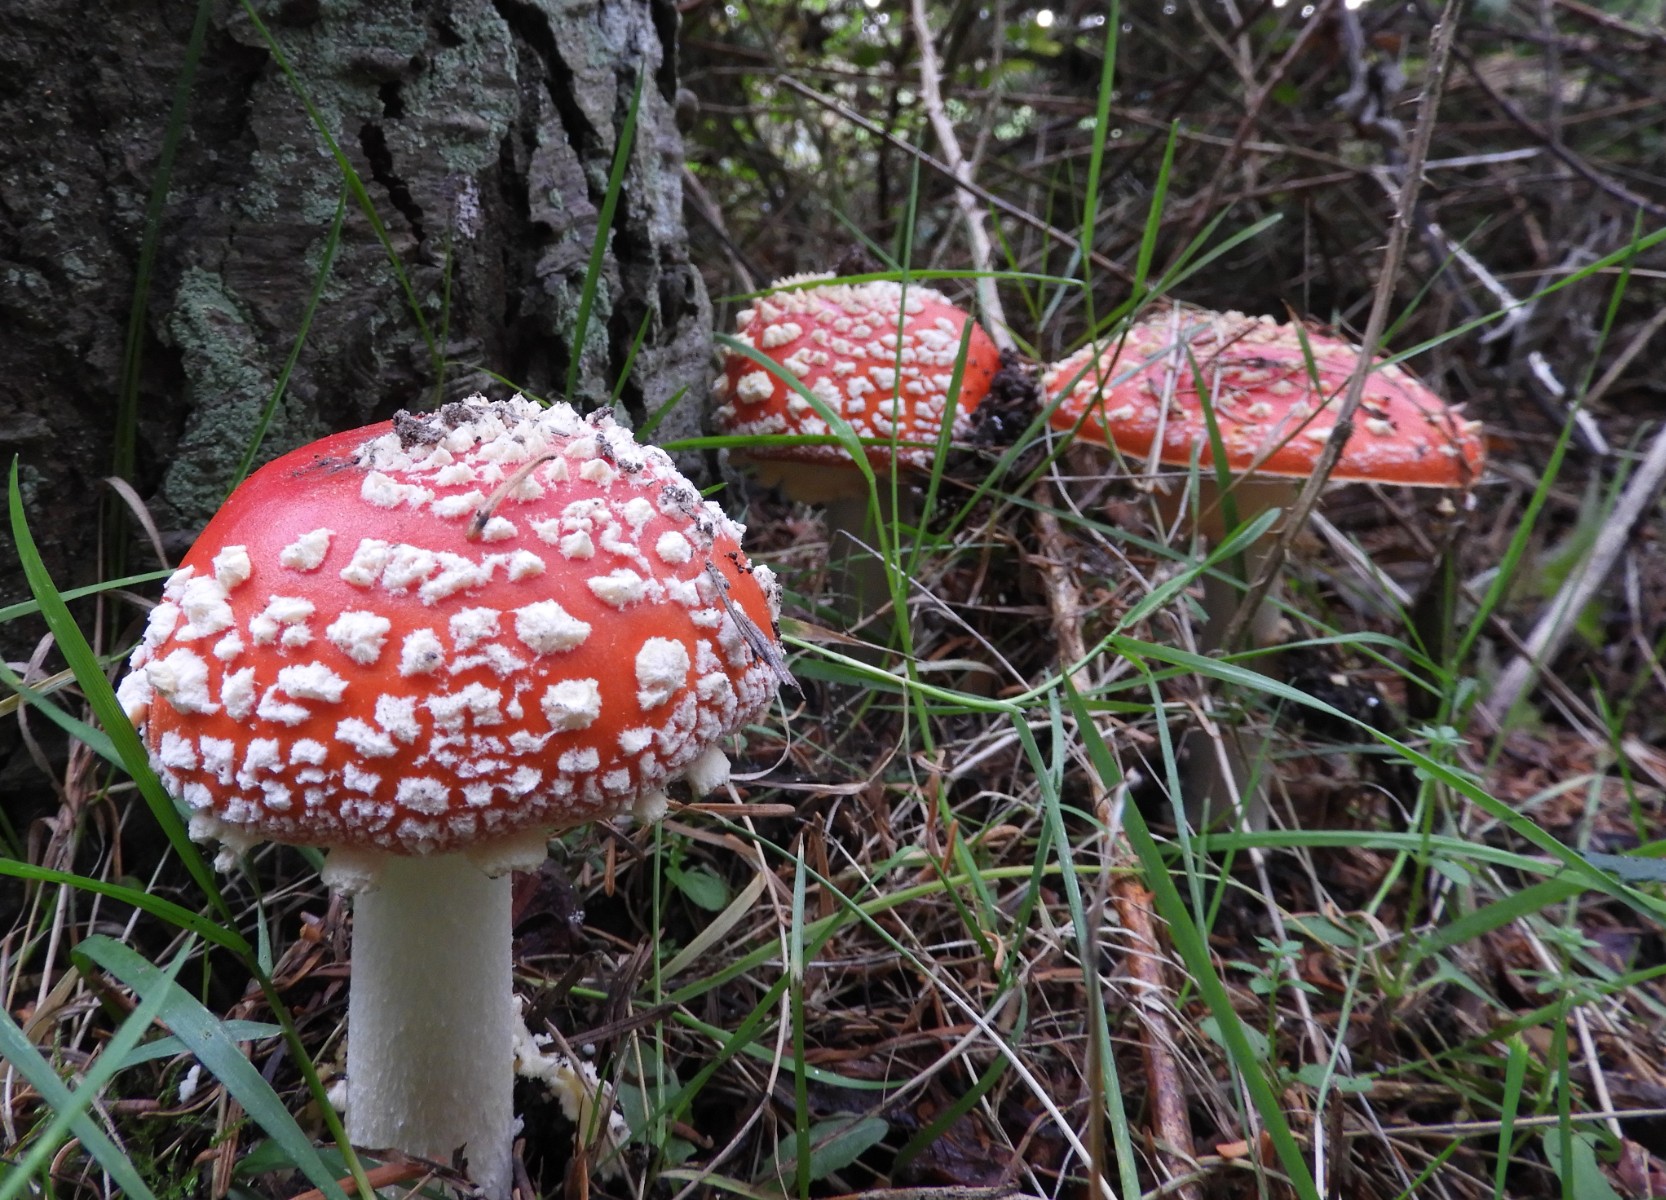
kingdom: Fungi
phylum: Basidiomycota
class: Agaricomycetes
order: Agaricales
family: Amanitaceae
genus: Amanita
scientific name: Amanita muscaria
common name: rød fluesvamp
